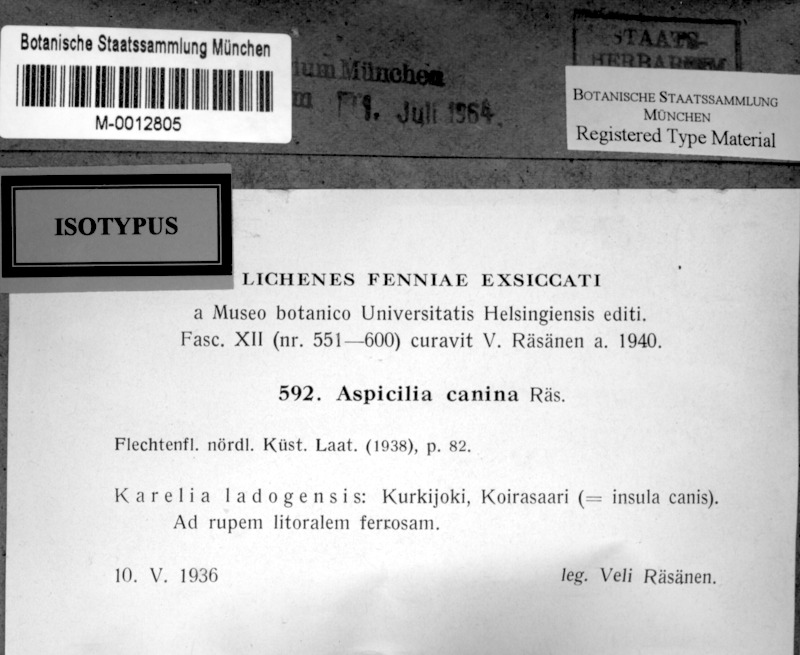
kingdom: Fungi
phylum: Ascomycota
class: Lecanoromycetes
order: Pertusariales
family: Megasporaceae
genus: Aspicilia
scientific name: Aspicilia connica
